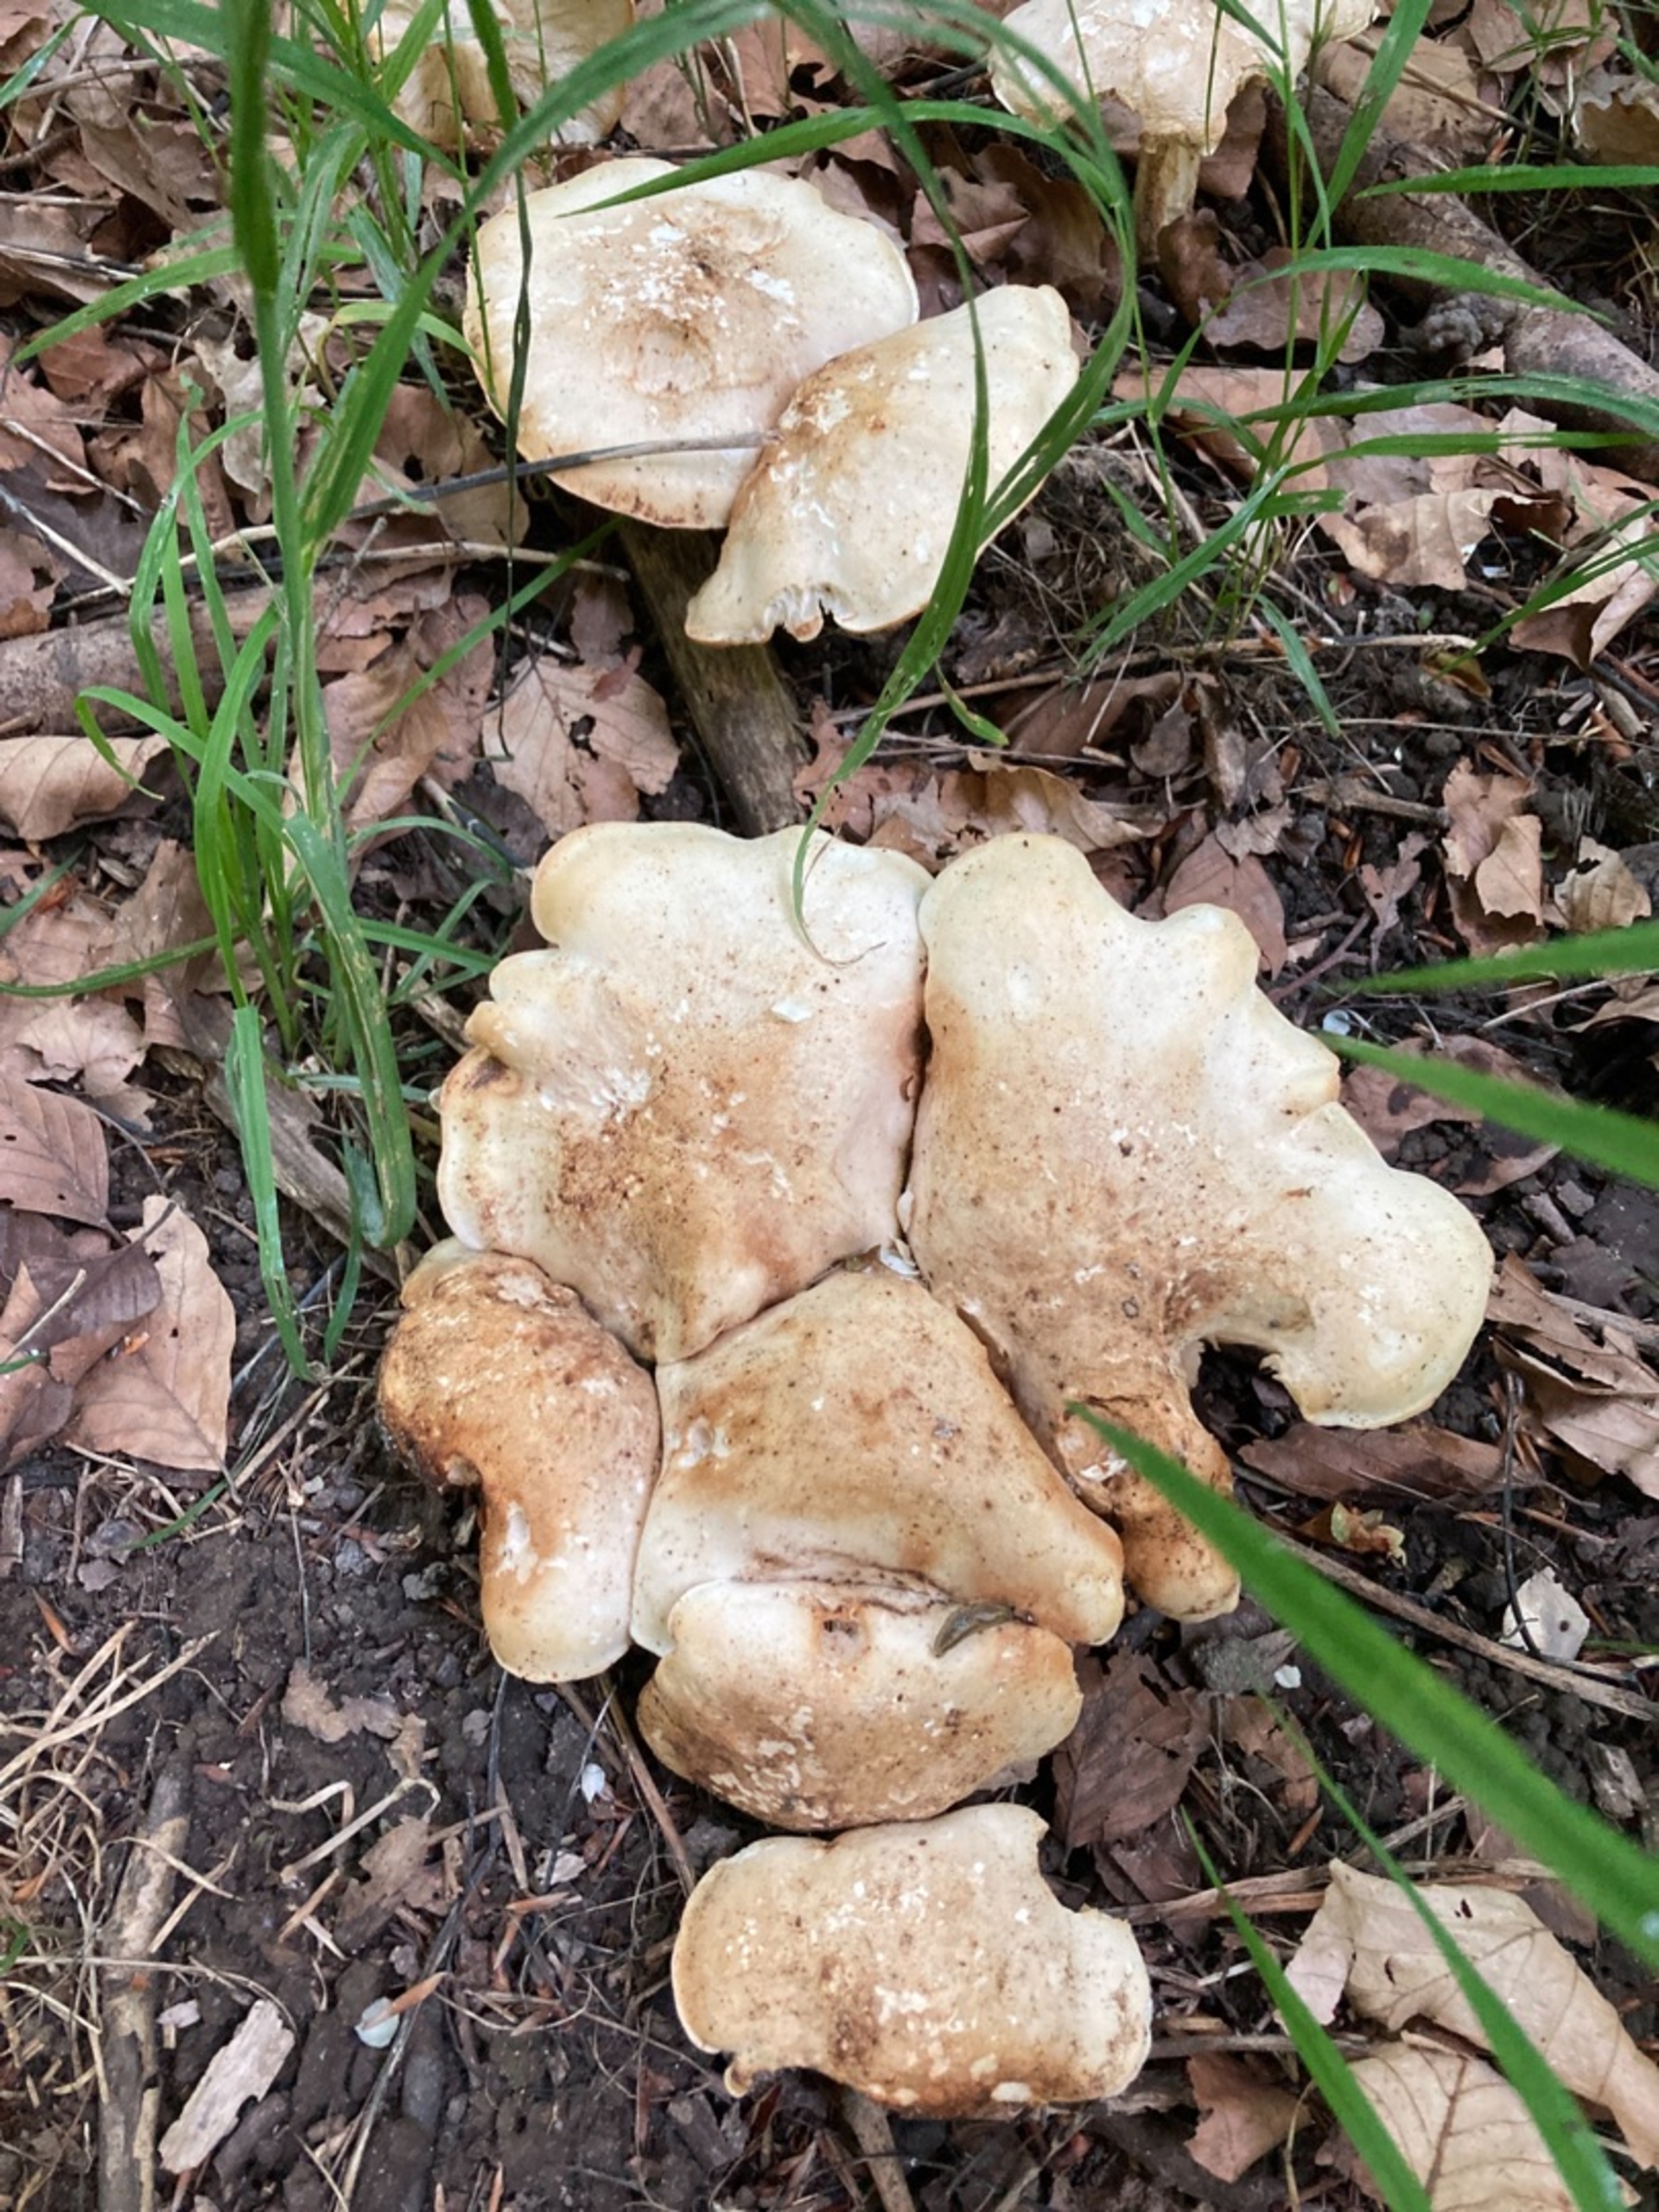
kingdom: Fungi
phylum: Basidiomycota
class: Agaricomycetes
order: Agaricales
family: Lyophyllaceae
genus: Calocybe
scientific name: Calocybe gambosa
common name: Vårmusseron
